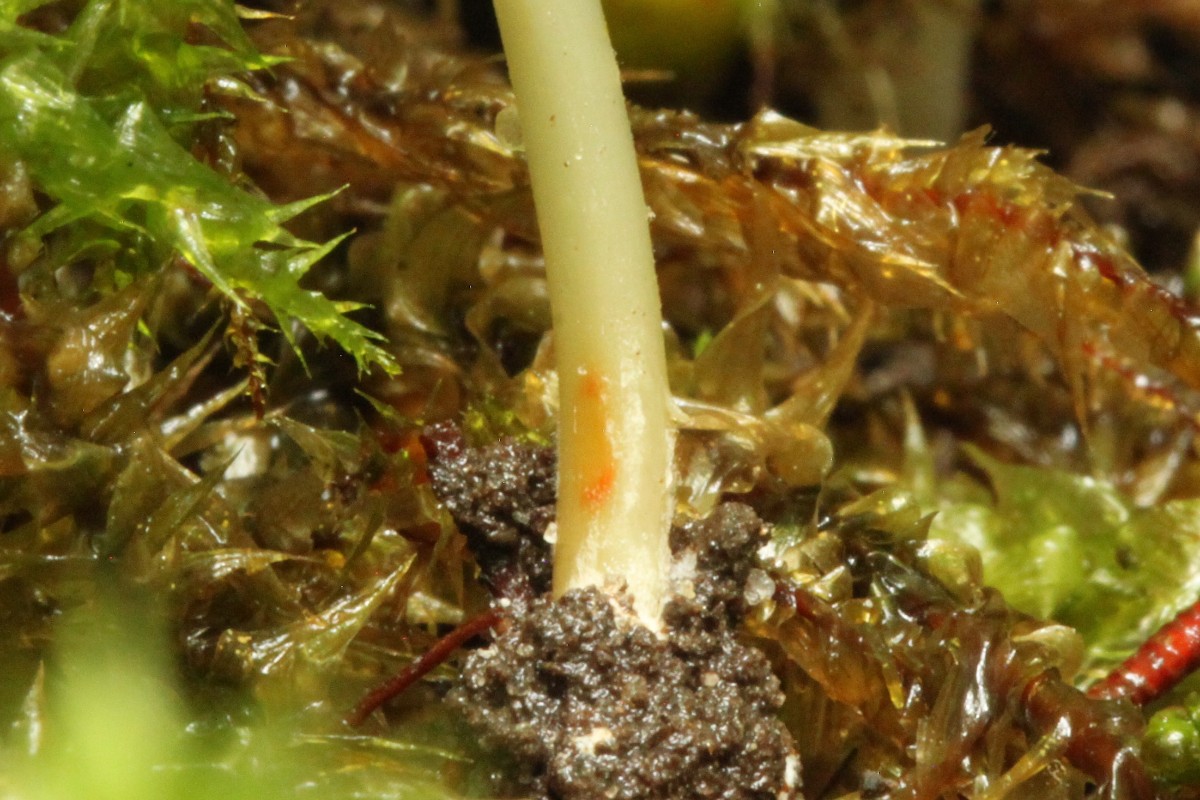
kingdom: Fungi
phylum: Basidiomycota
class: Agaricomycetes
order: Agaricales
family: Entolomataceae
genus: Entoloma
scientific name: Entoloma exile
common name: rødplettet rødblad
